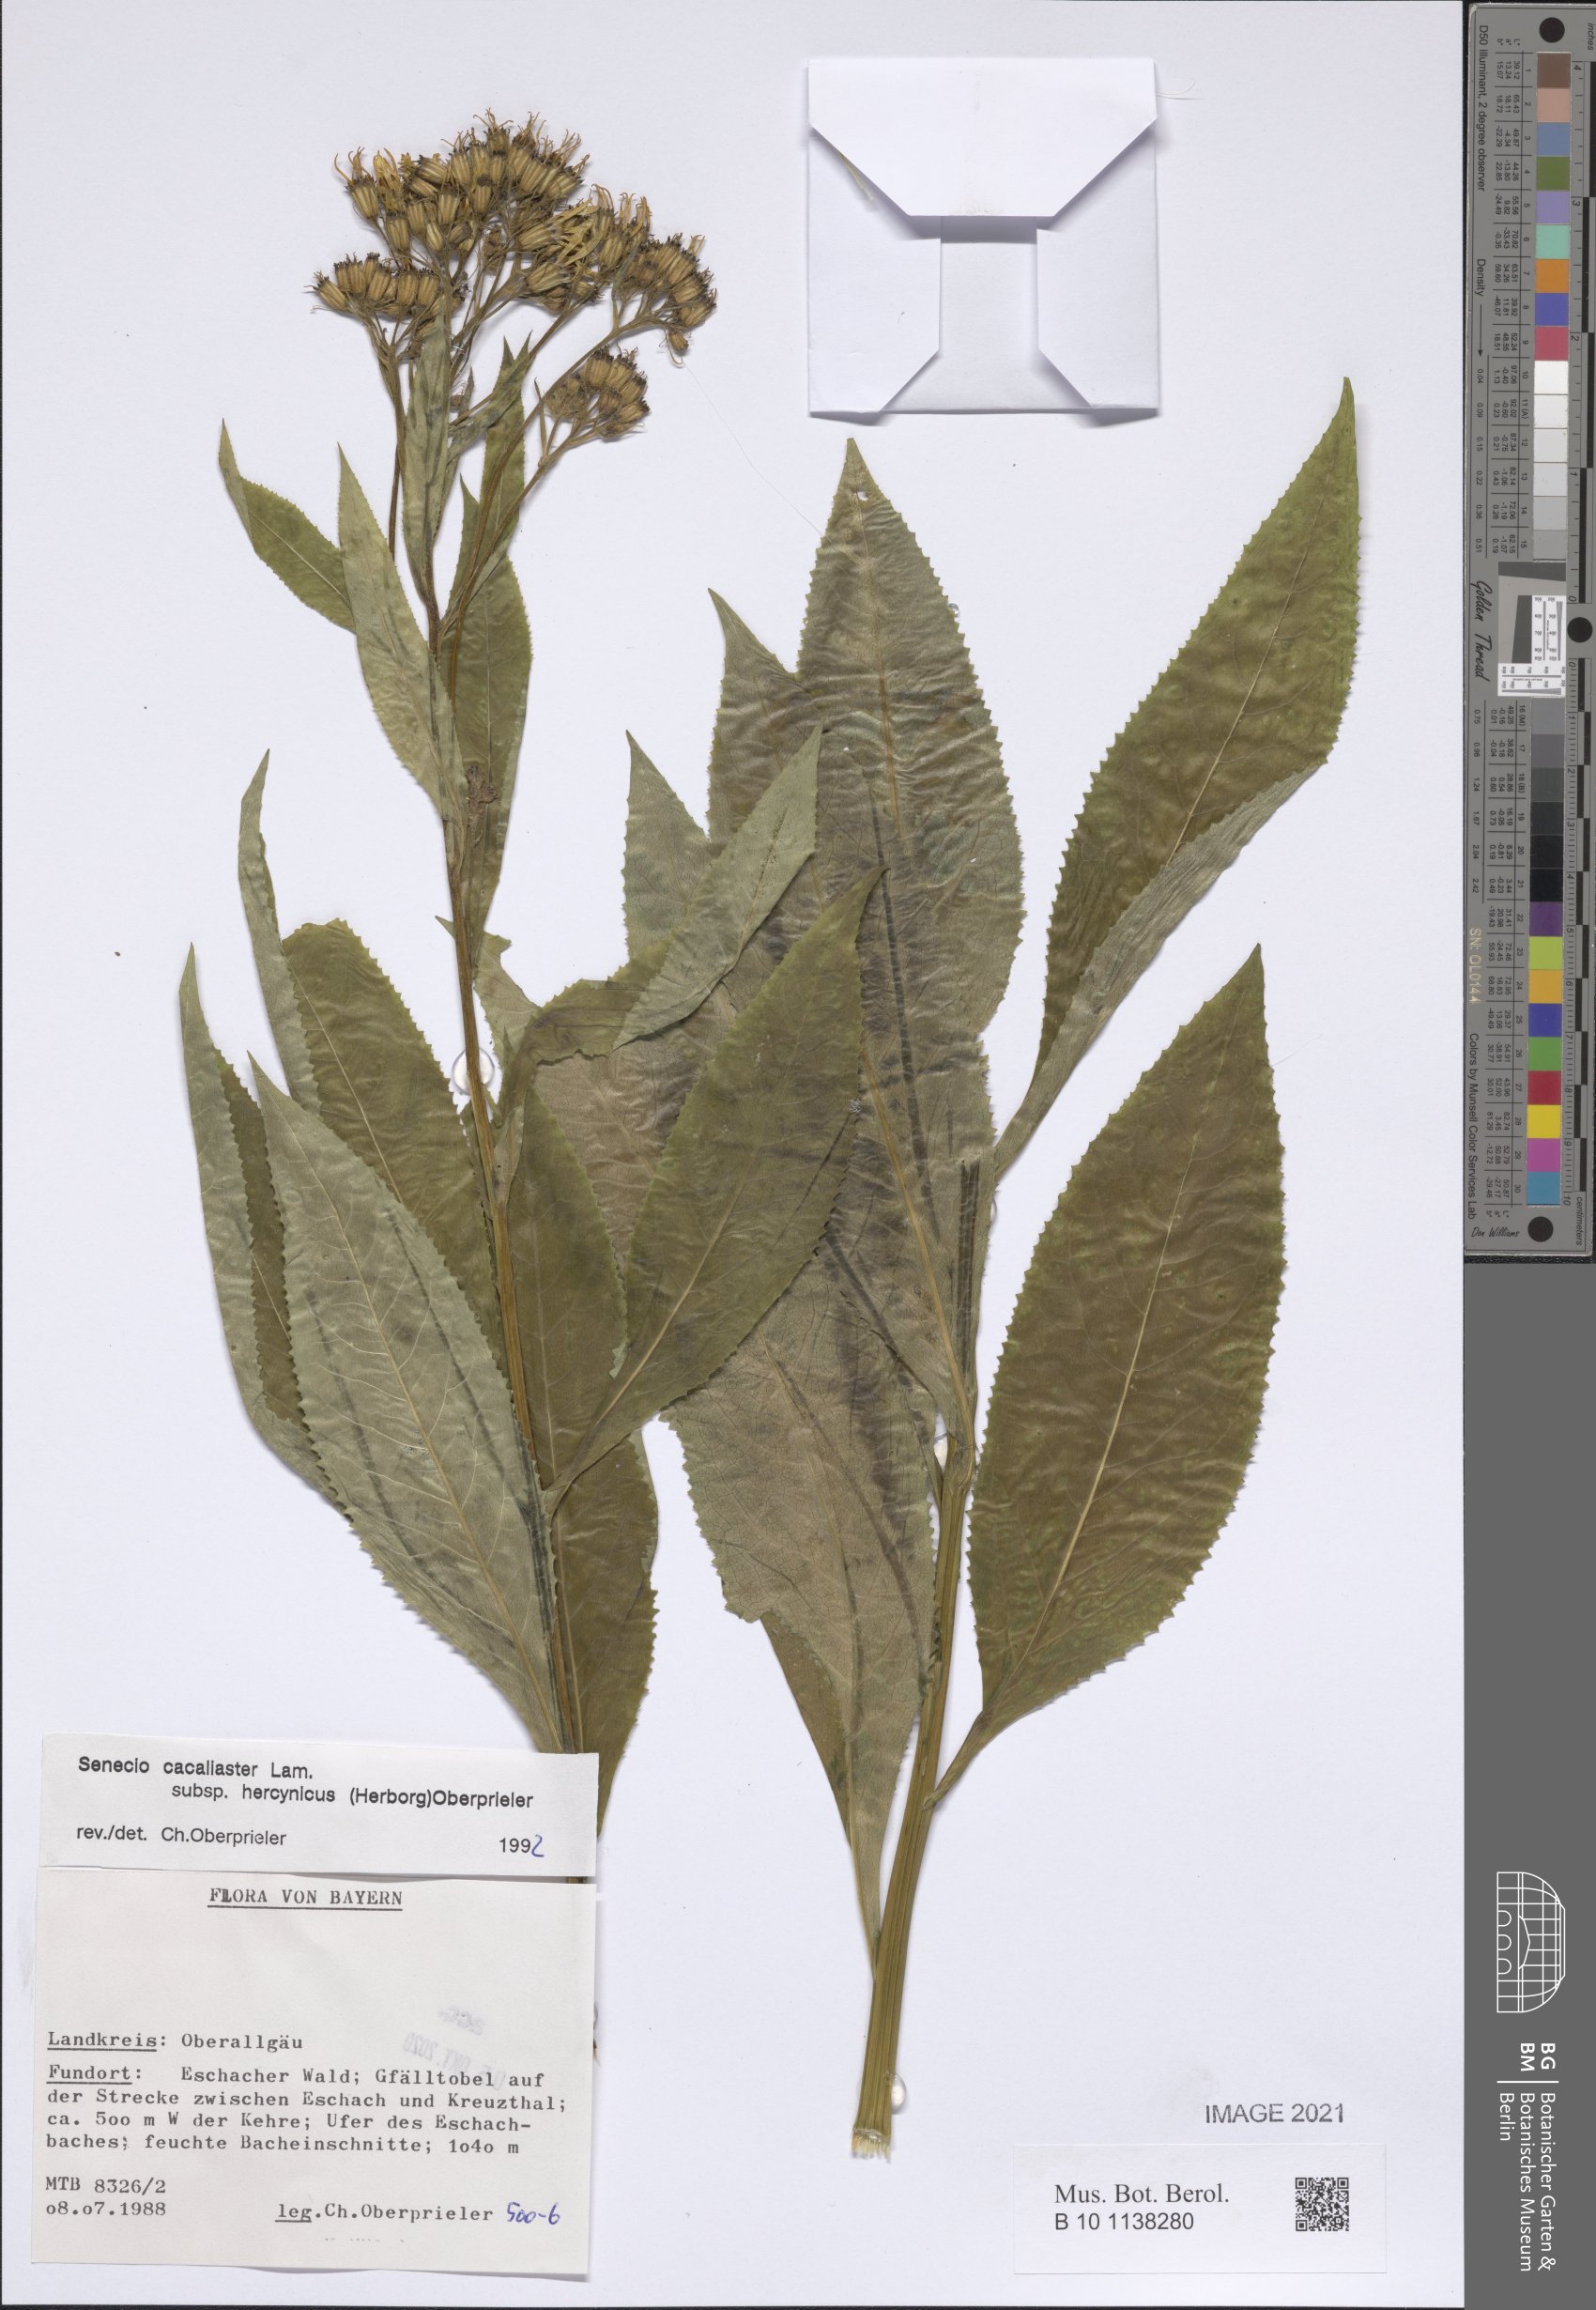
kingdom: Plantae
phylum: Tracheophyta
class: Magnoliopsida
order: Asterales
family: Asteraceae
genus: Senecio
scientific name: Senecio hercynicus
